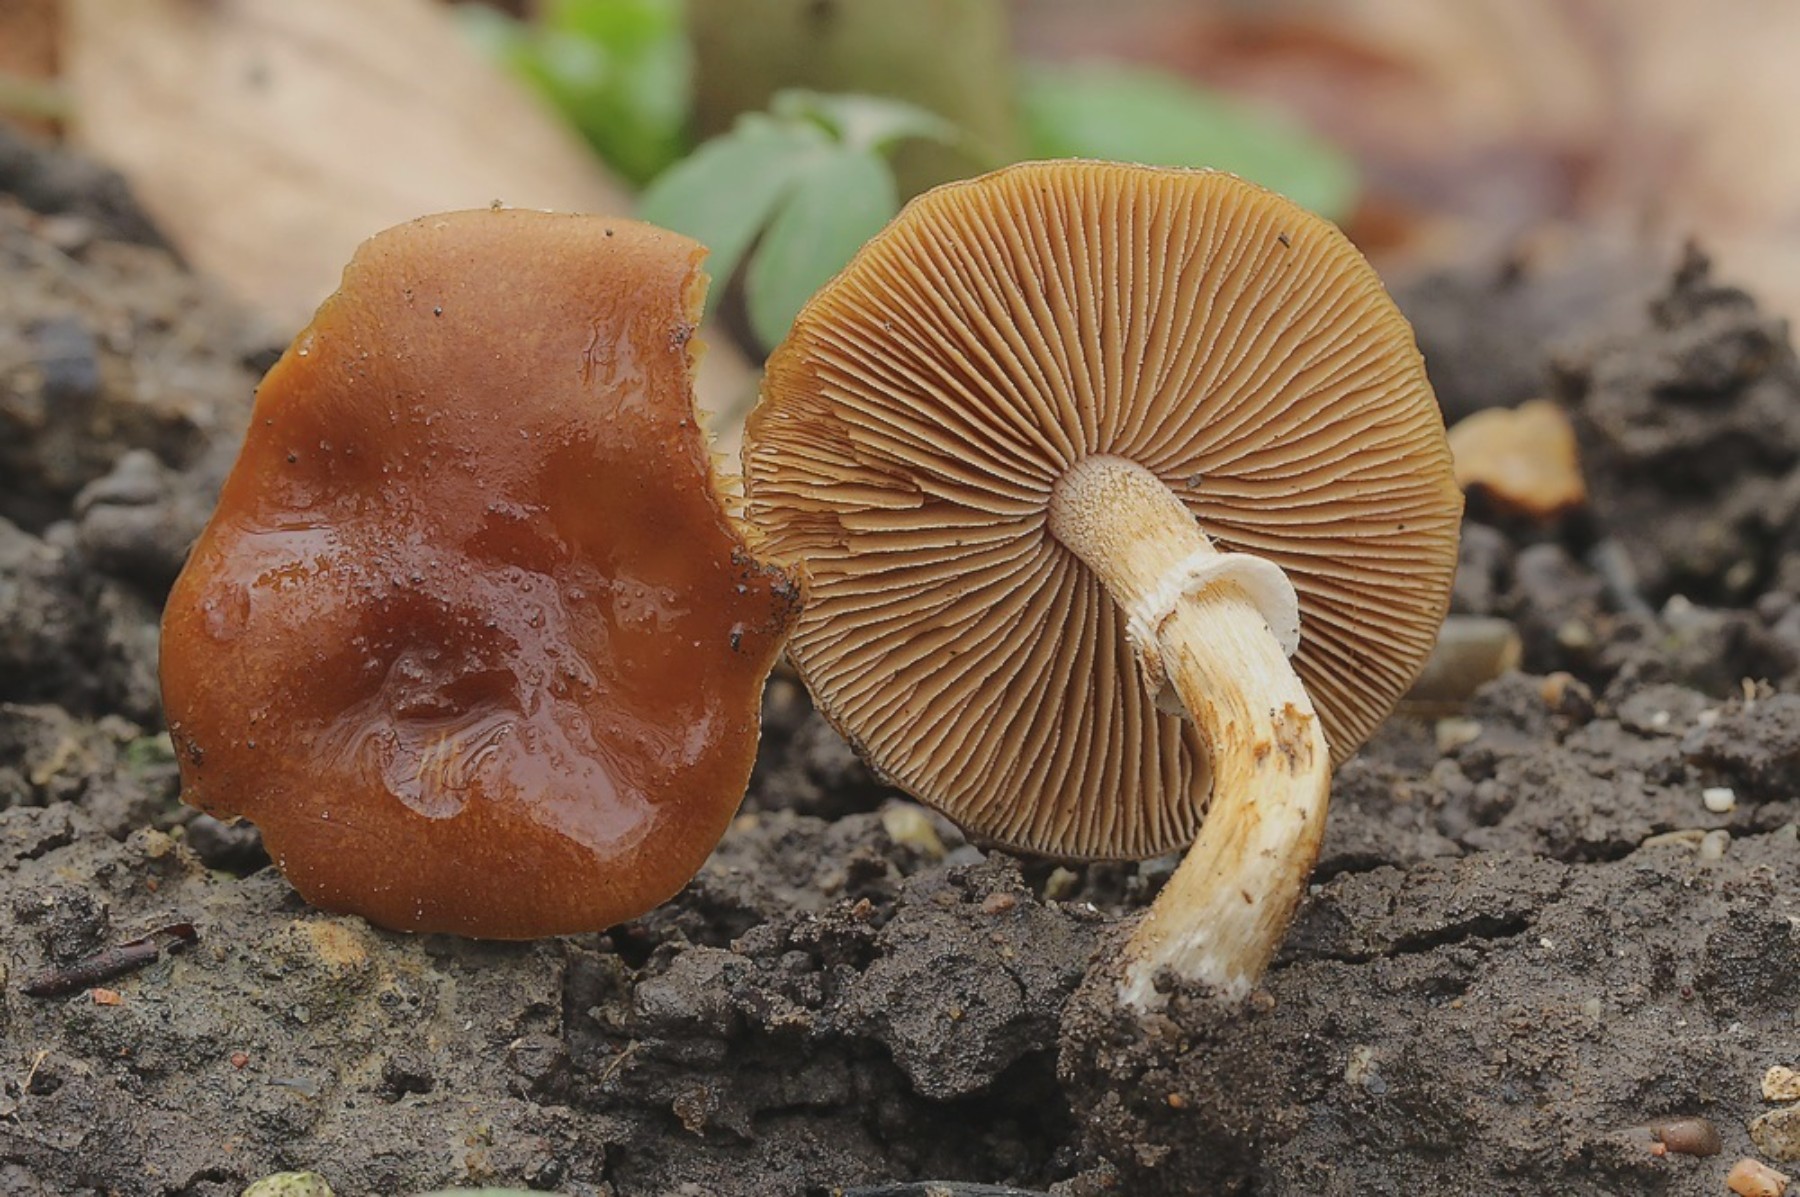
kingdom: Fungi
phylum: Basidiomycota
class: Agaricomycetes
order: Agaricales
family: Bolbitiaceae
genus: Conocybe
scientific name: Conocybe aporos
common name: tidlig dansehat
